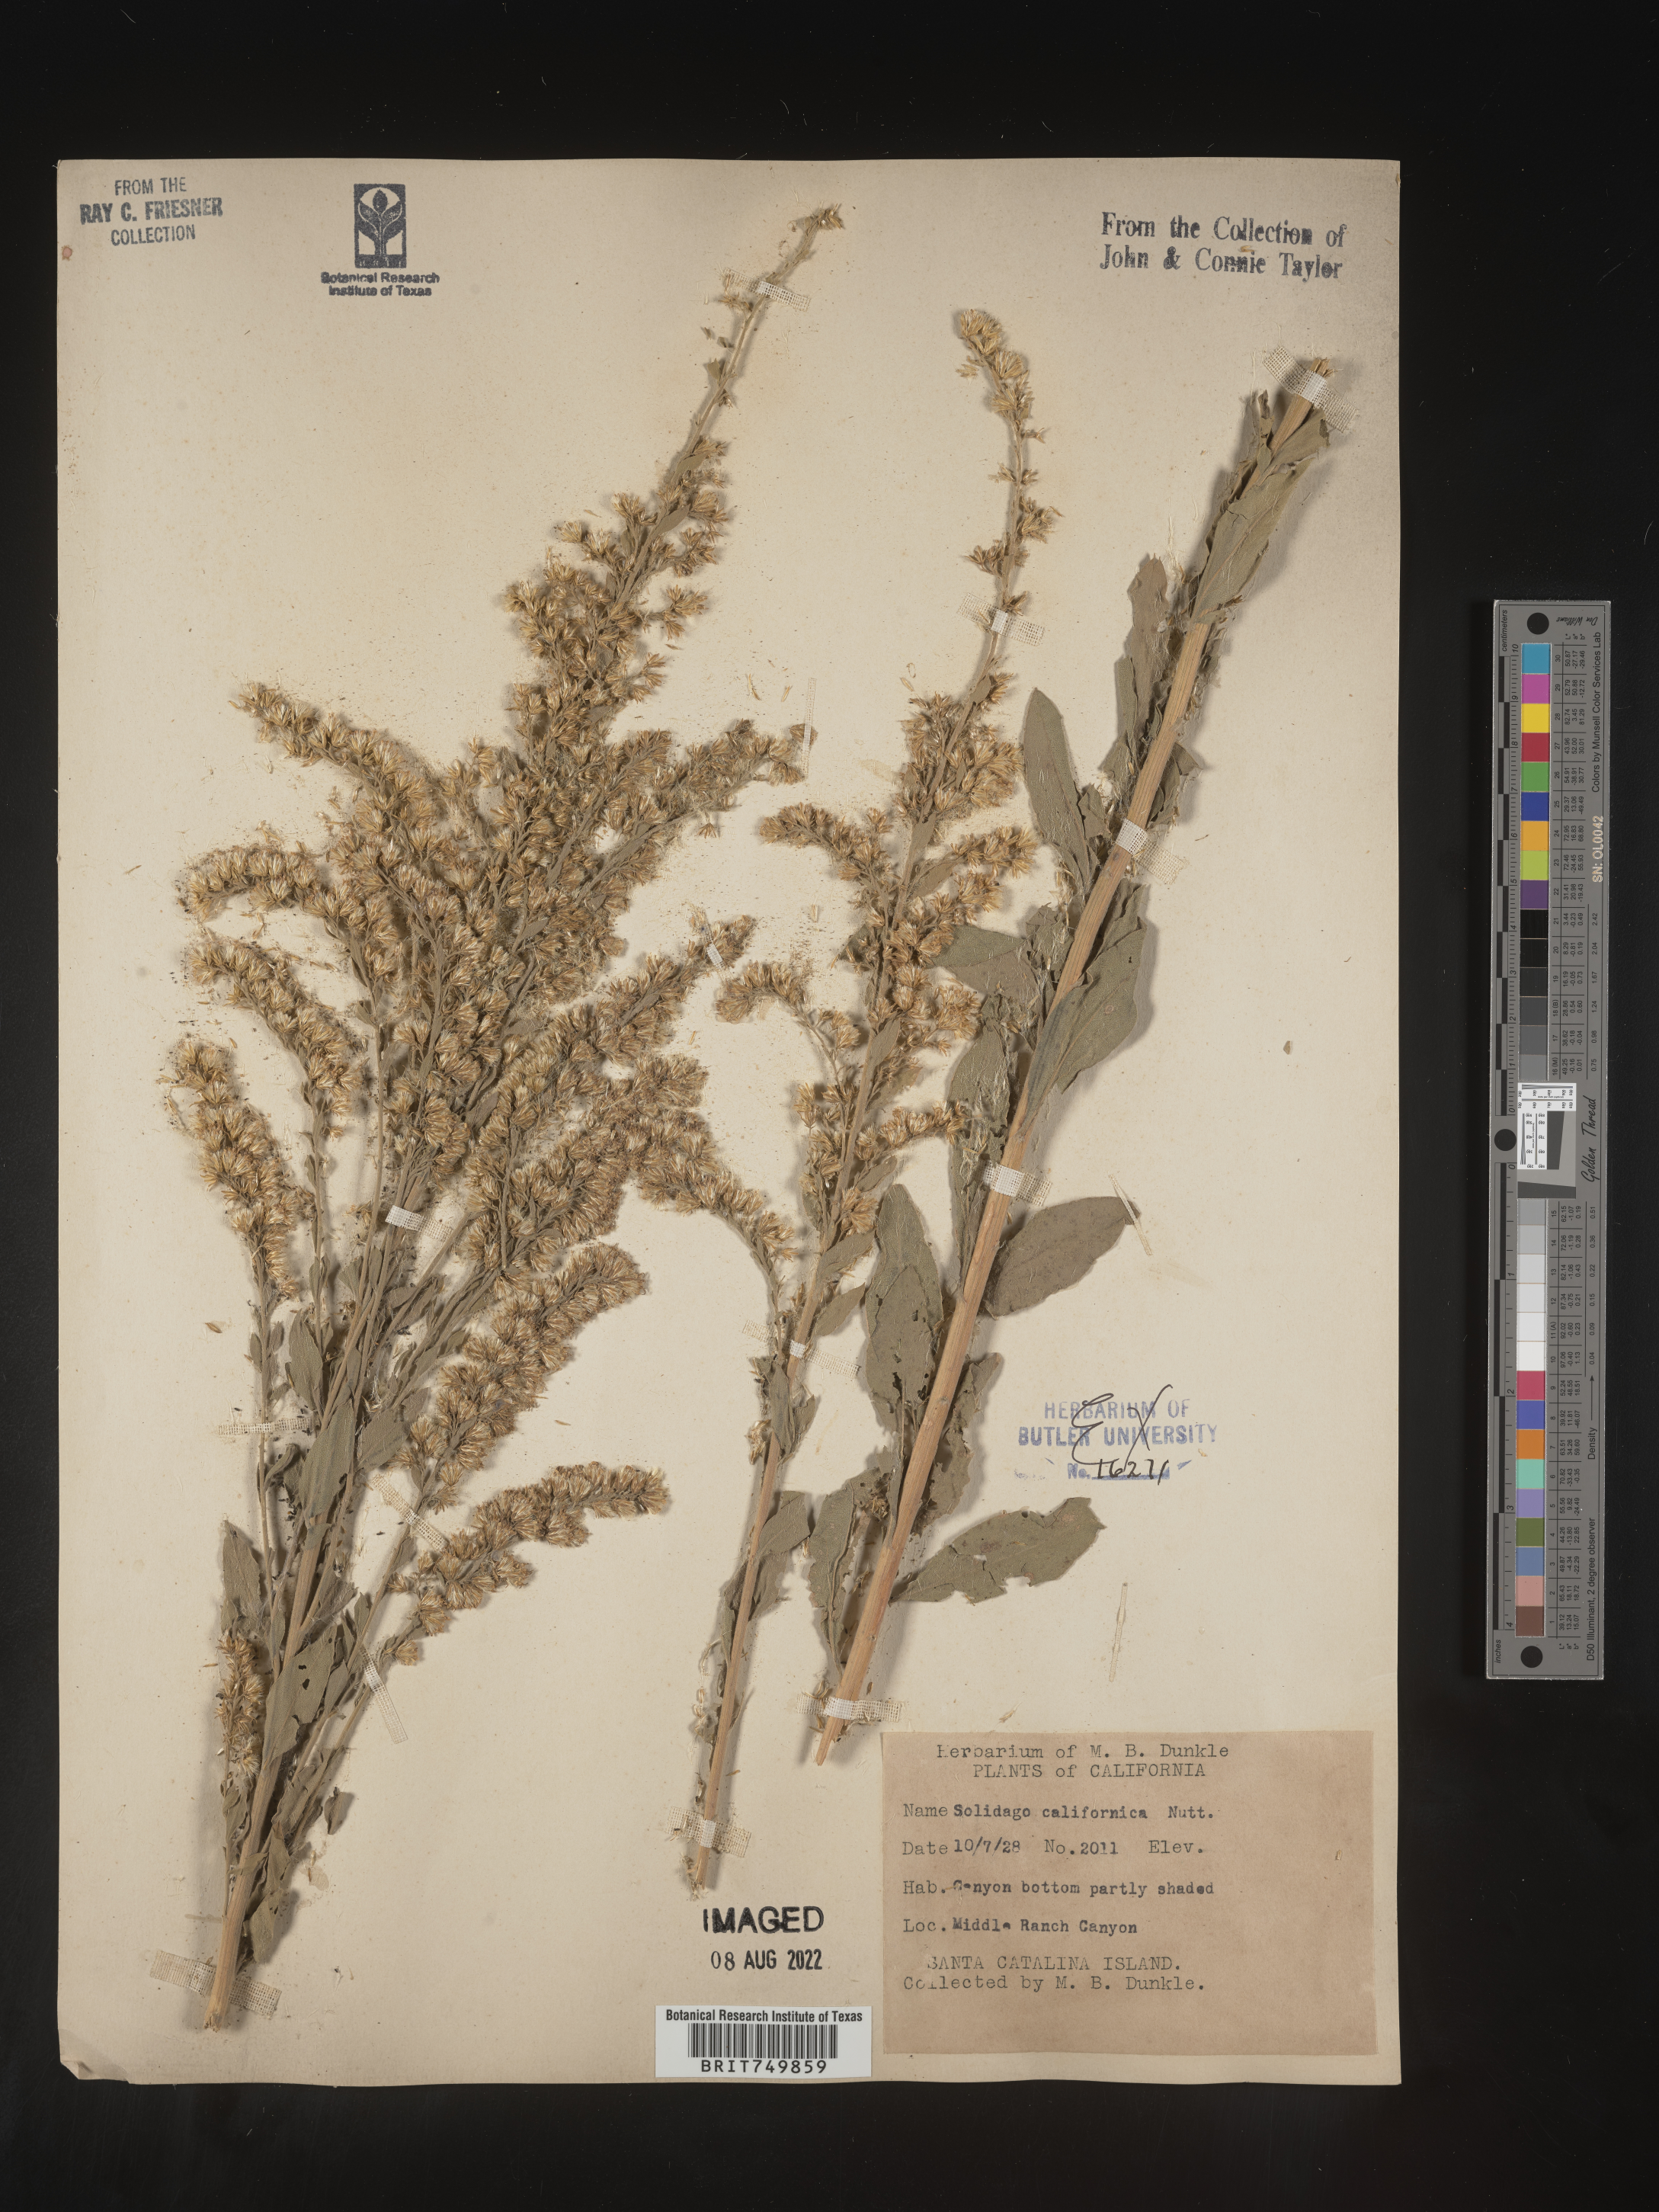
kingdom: Plantae
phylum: Tracheophyta
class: Magnoliopsida
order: Asterales
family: Asteraceae
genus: Solidago
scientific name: Solidago californica
